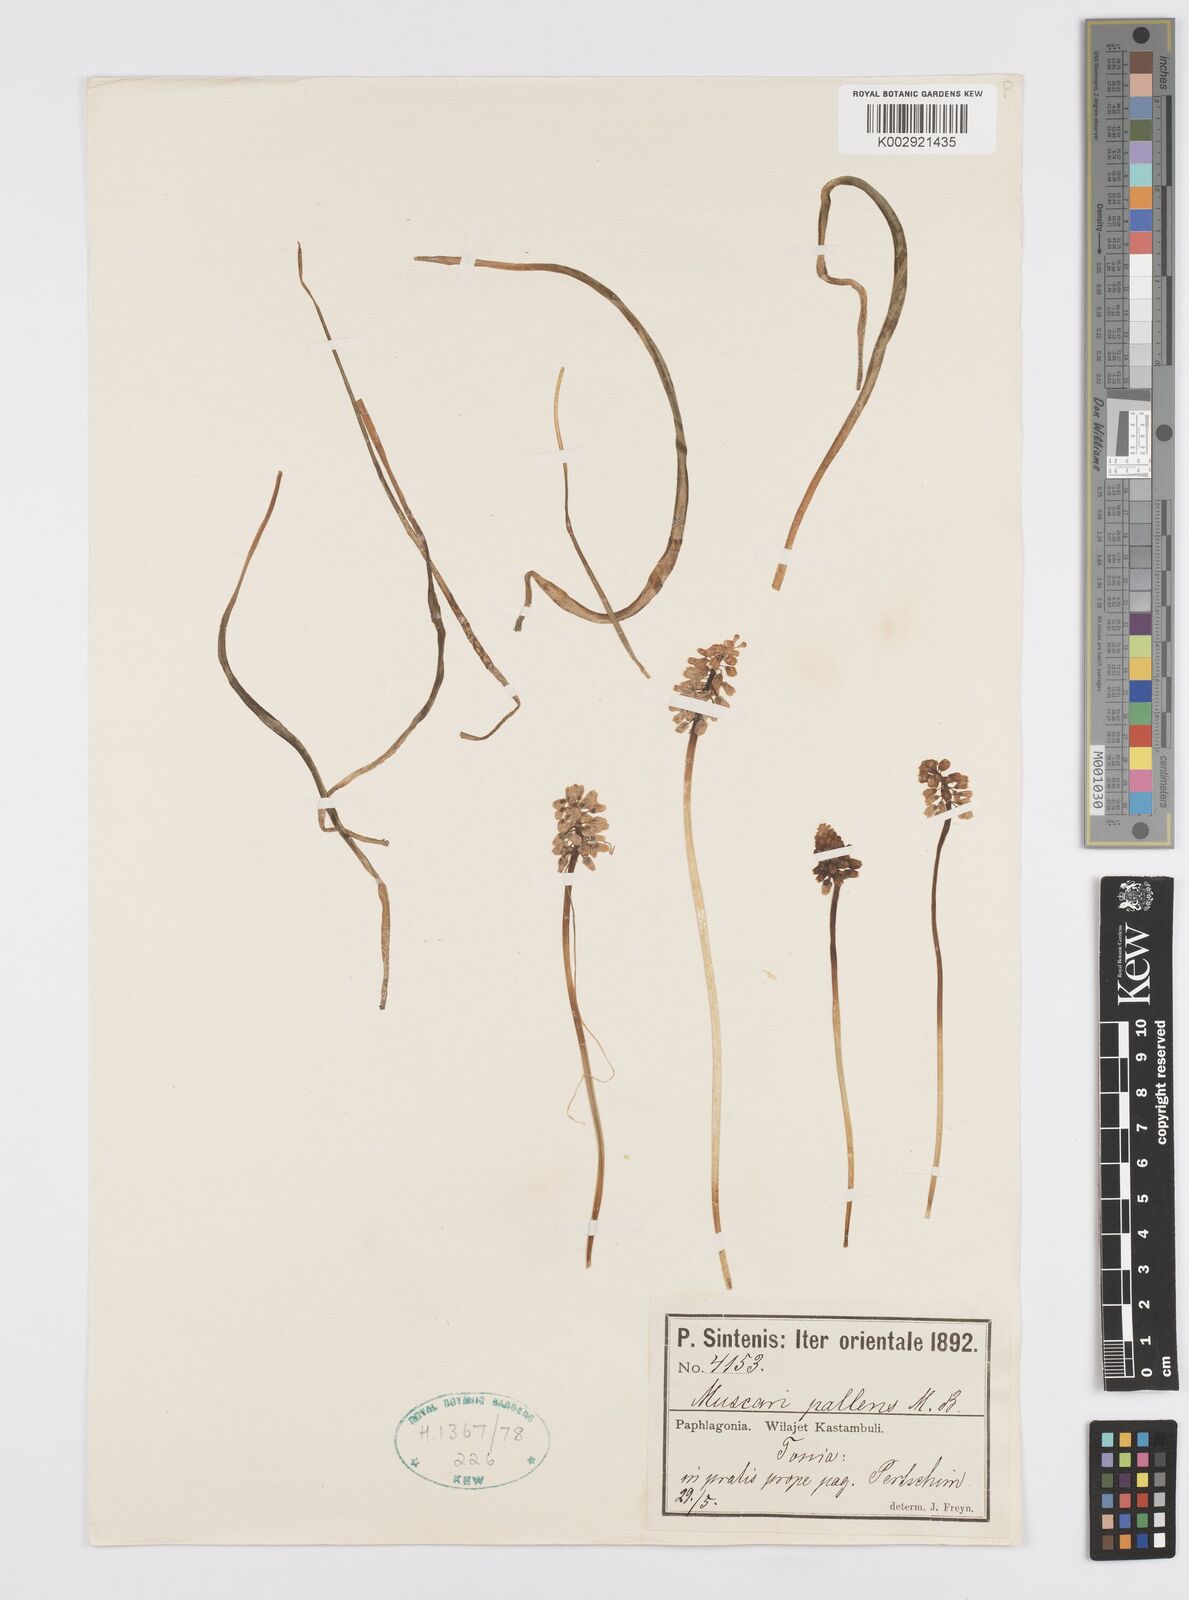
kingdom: Plantae
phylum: Tracheophyta
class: Liliopsida
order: Asparagales
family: Asparagaceae
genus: Muscari
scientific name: Muscari pallens
